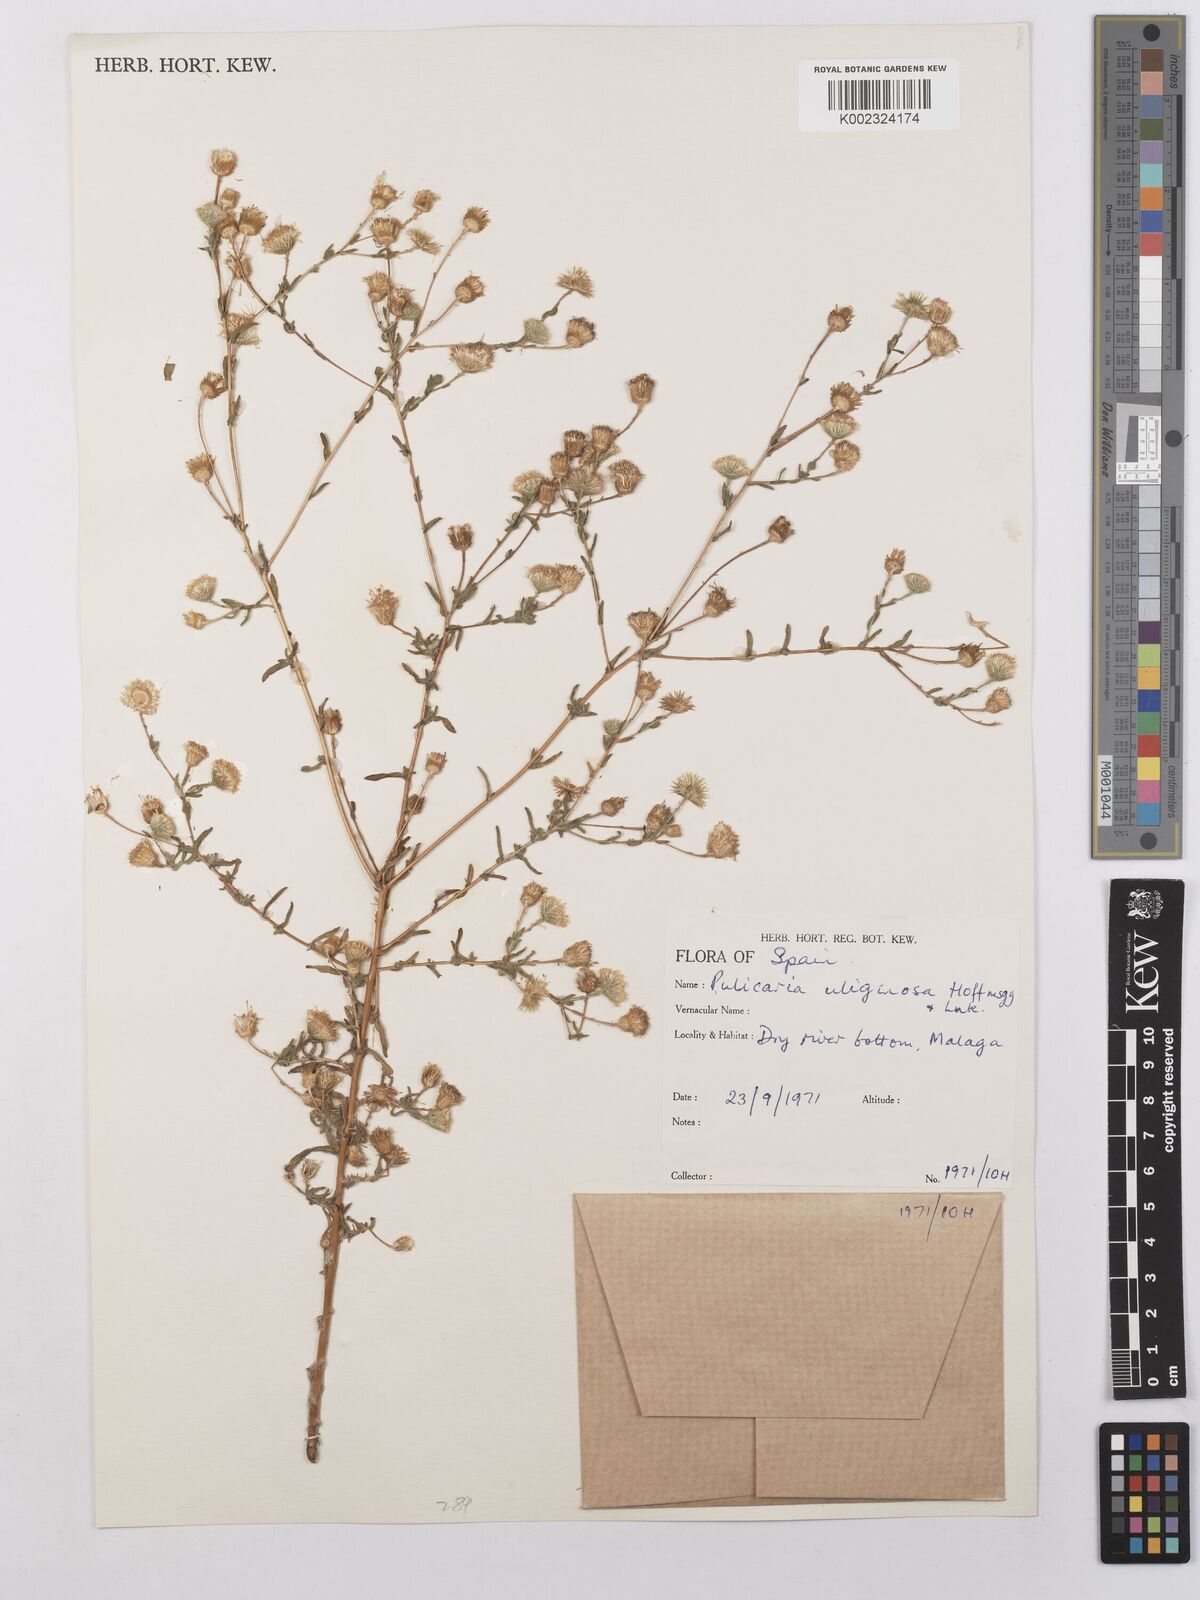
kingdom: Plantae
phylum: Tracheophyta
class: Magnoliopsida
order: Asterales
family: Asteraceae
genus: Pulicaria
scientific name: Pulicaria arabica
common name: Ladies' false fleabane
